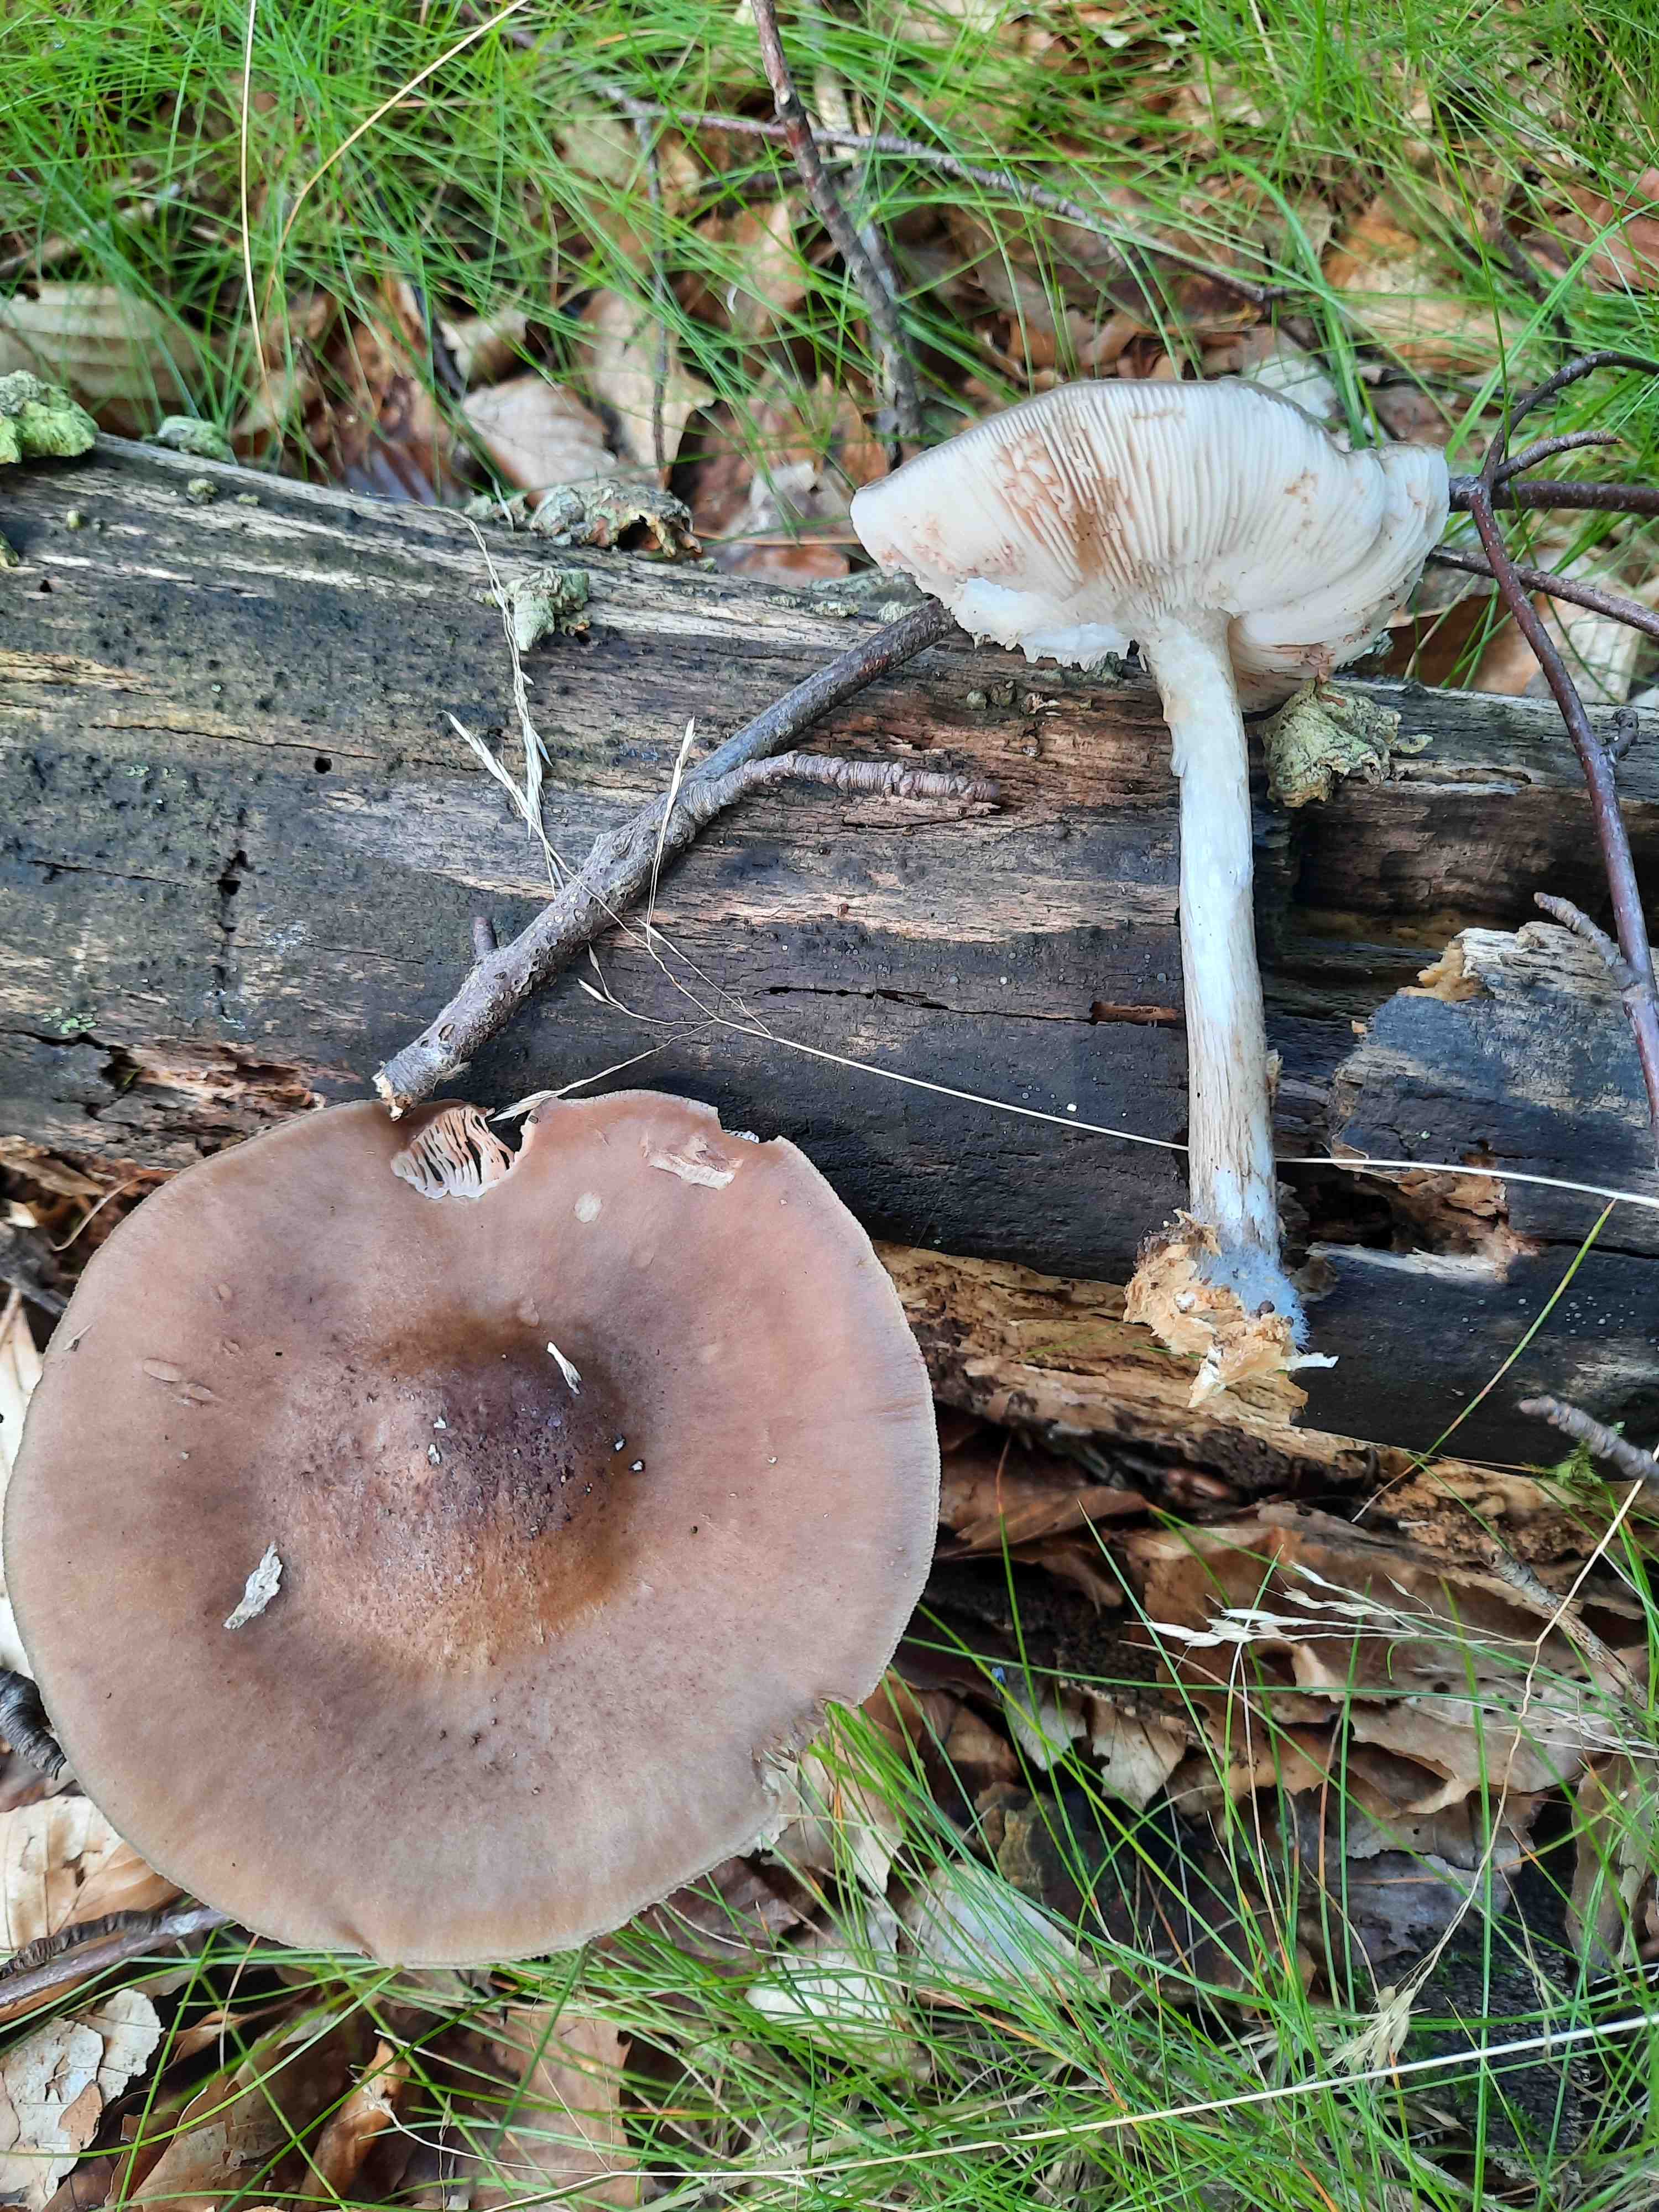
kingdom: Fungi
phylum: Basidiomycota
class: Agaricomycetes
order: Agaricales
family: Tricholomataceae
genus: Megacollybia
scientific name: Megacollybia platyphylla
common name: bredbladet væbnerhat
